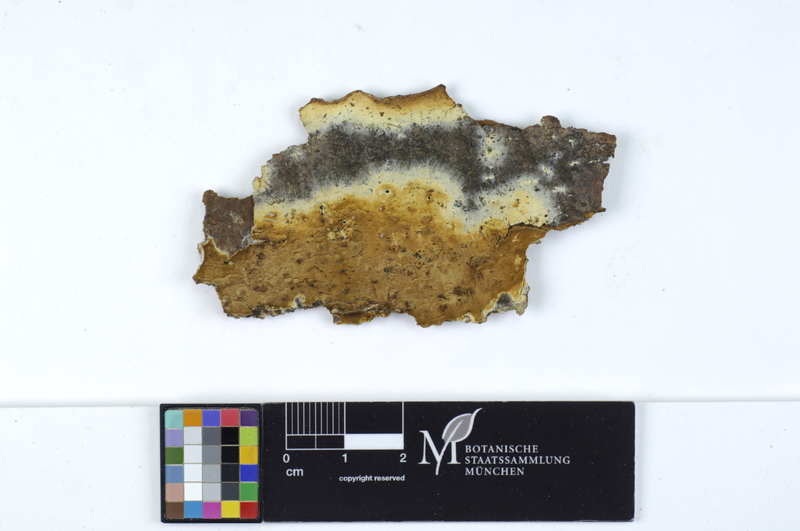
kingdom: Plantae
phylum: Tracheophyta
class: Magnoliopsida
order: Fagales
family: Fagaceae
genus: Fagus
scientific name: Fagus sylvatica
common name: Beech
